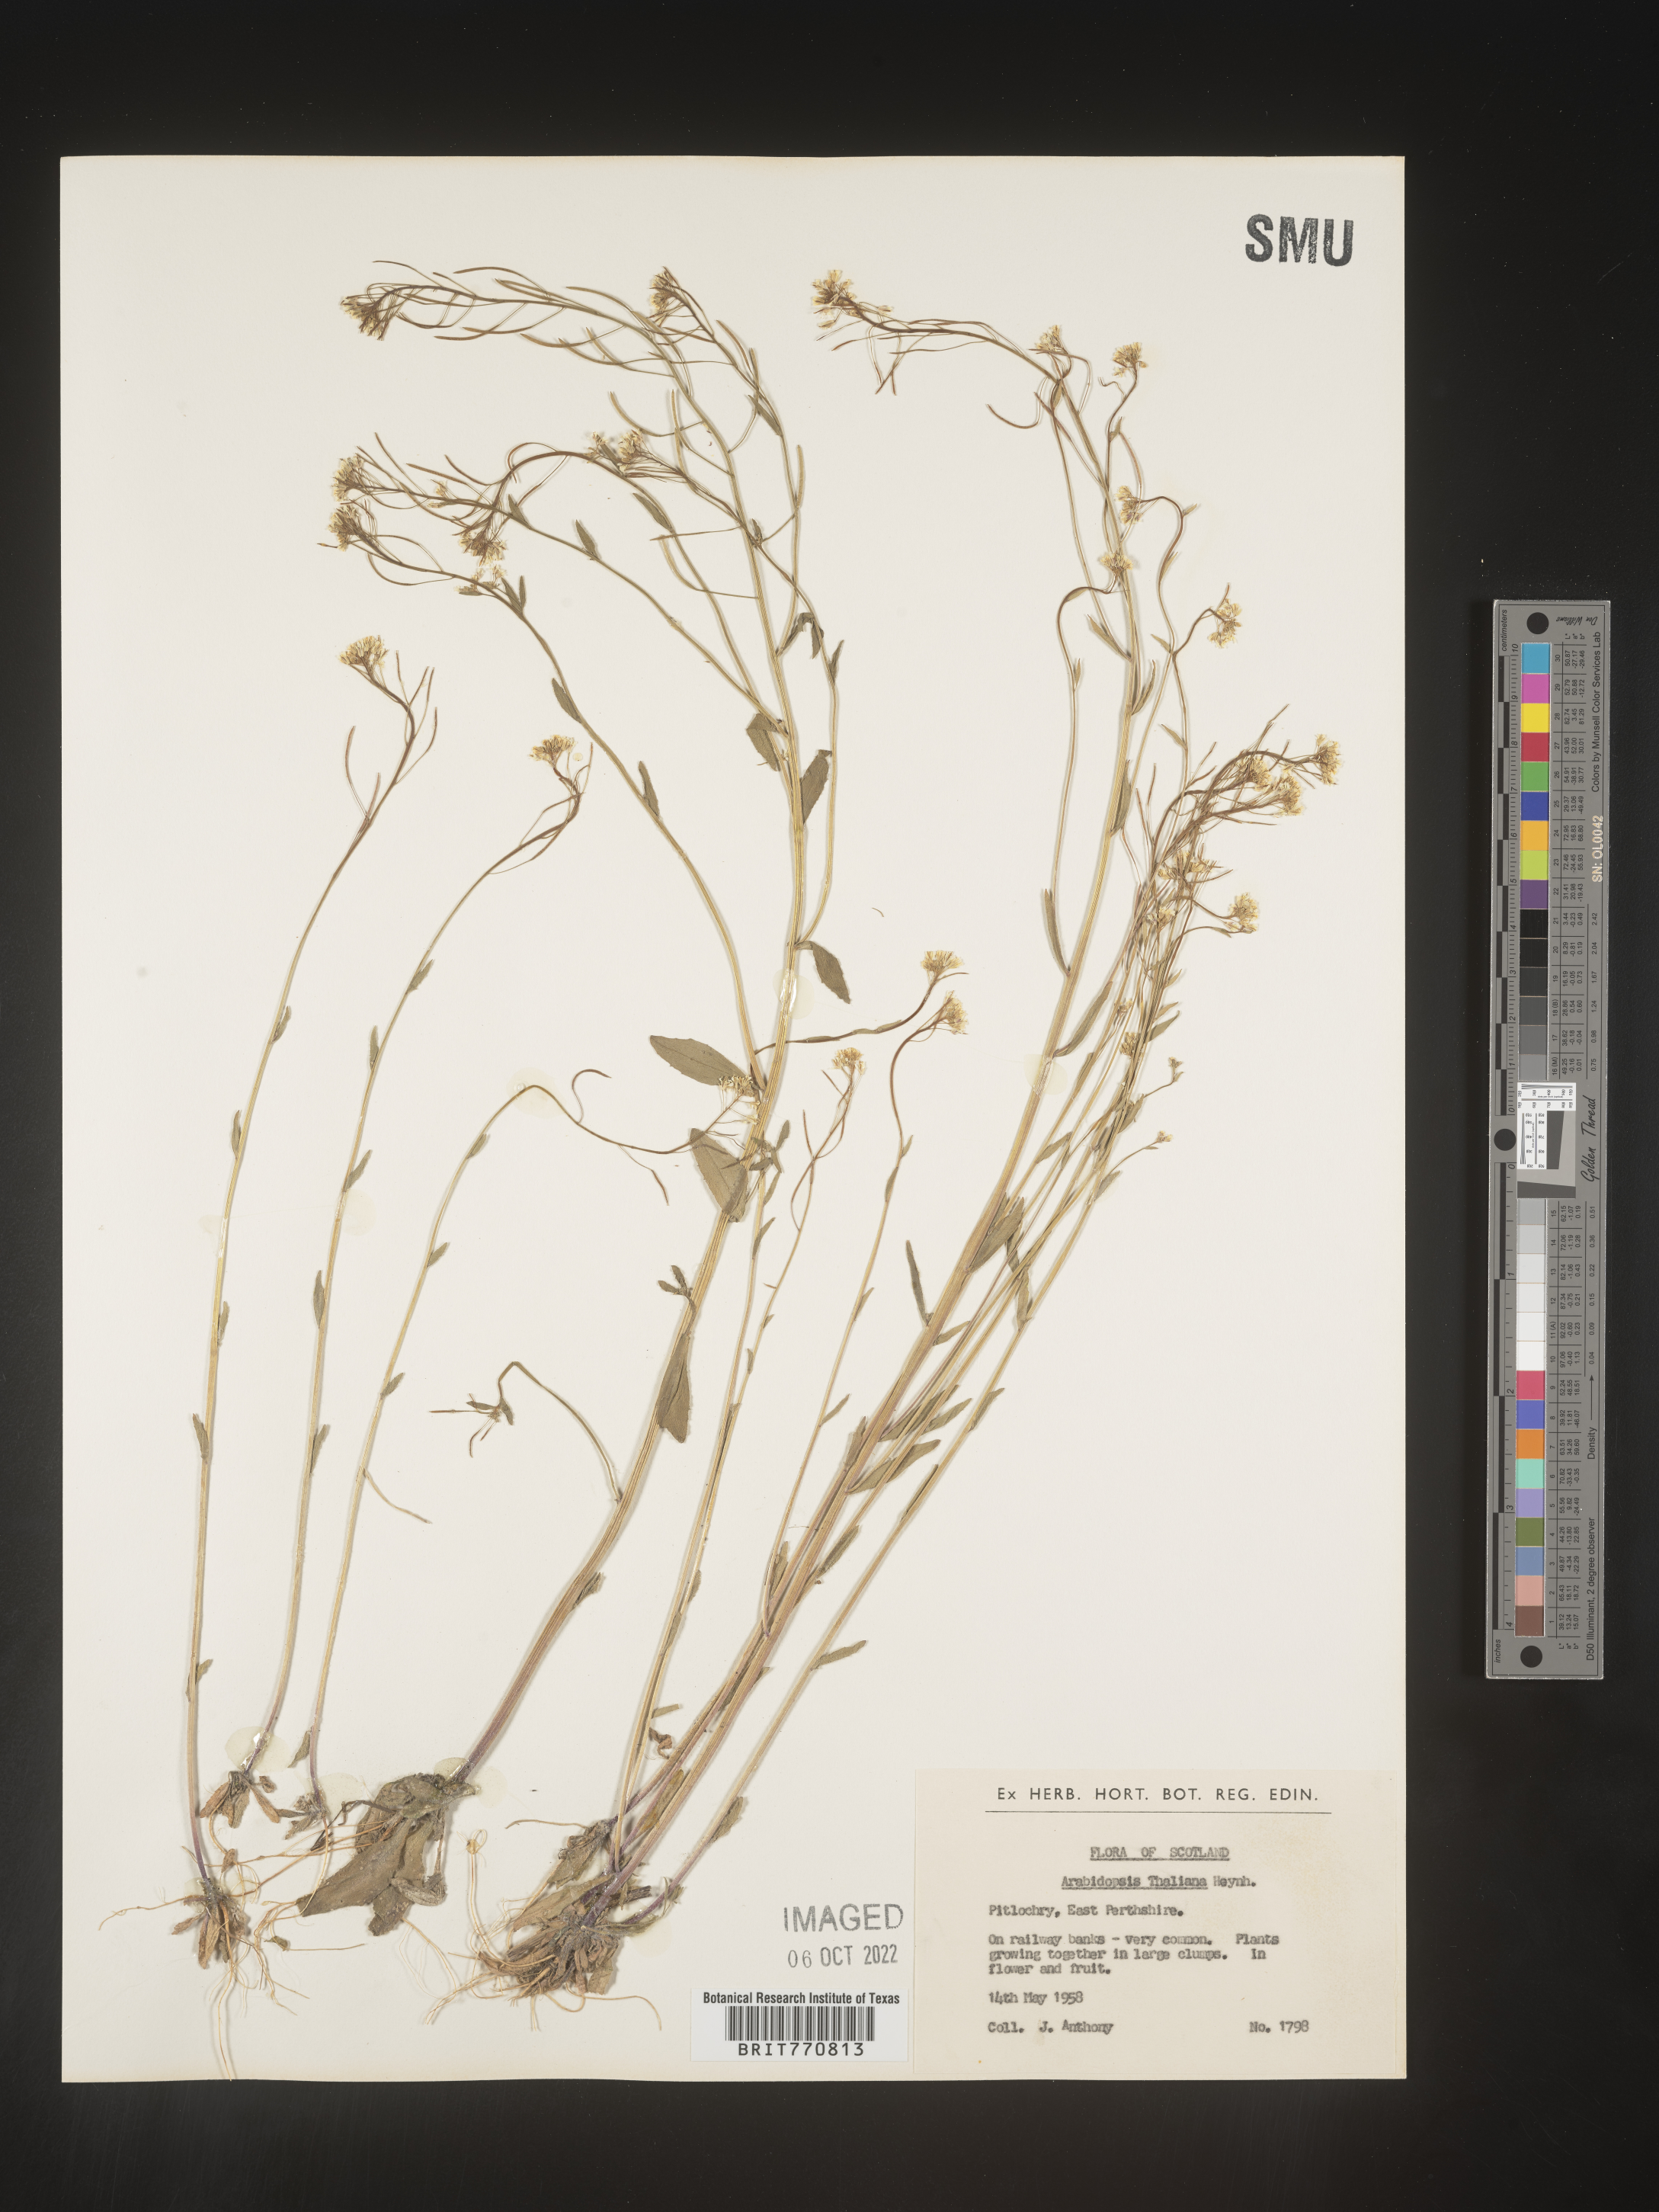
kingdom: Plantae
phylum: Tracheophyta
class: Magnoliopsida
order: Brassicales
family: Brassicaceae
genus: Arabidopsis
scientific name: Arabidopsis
